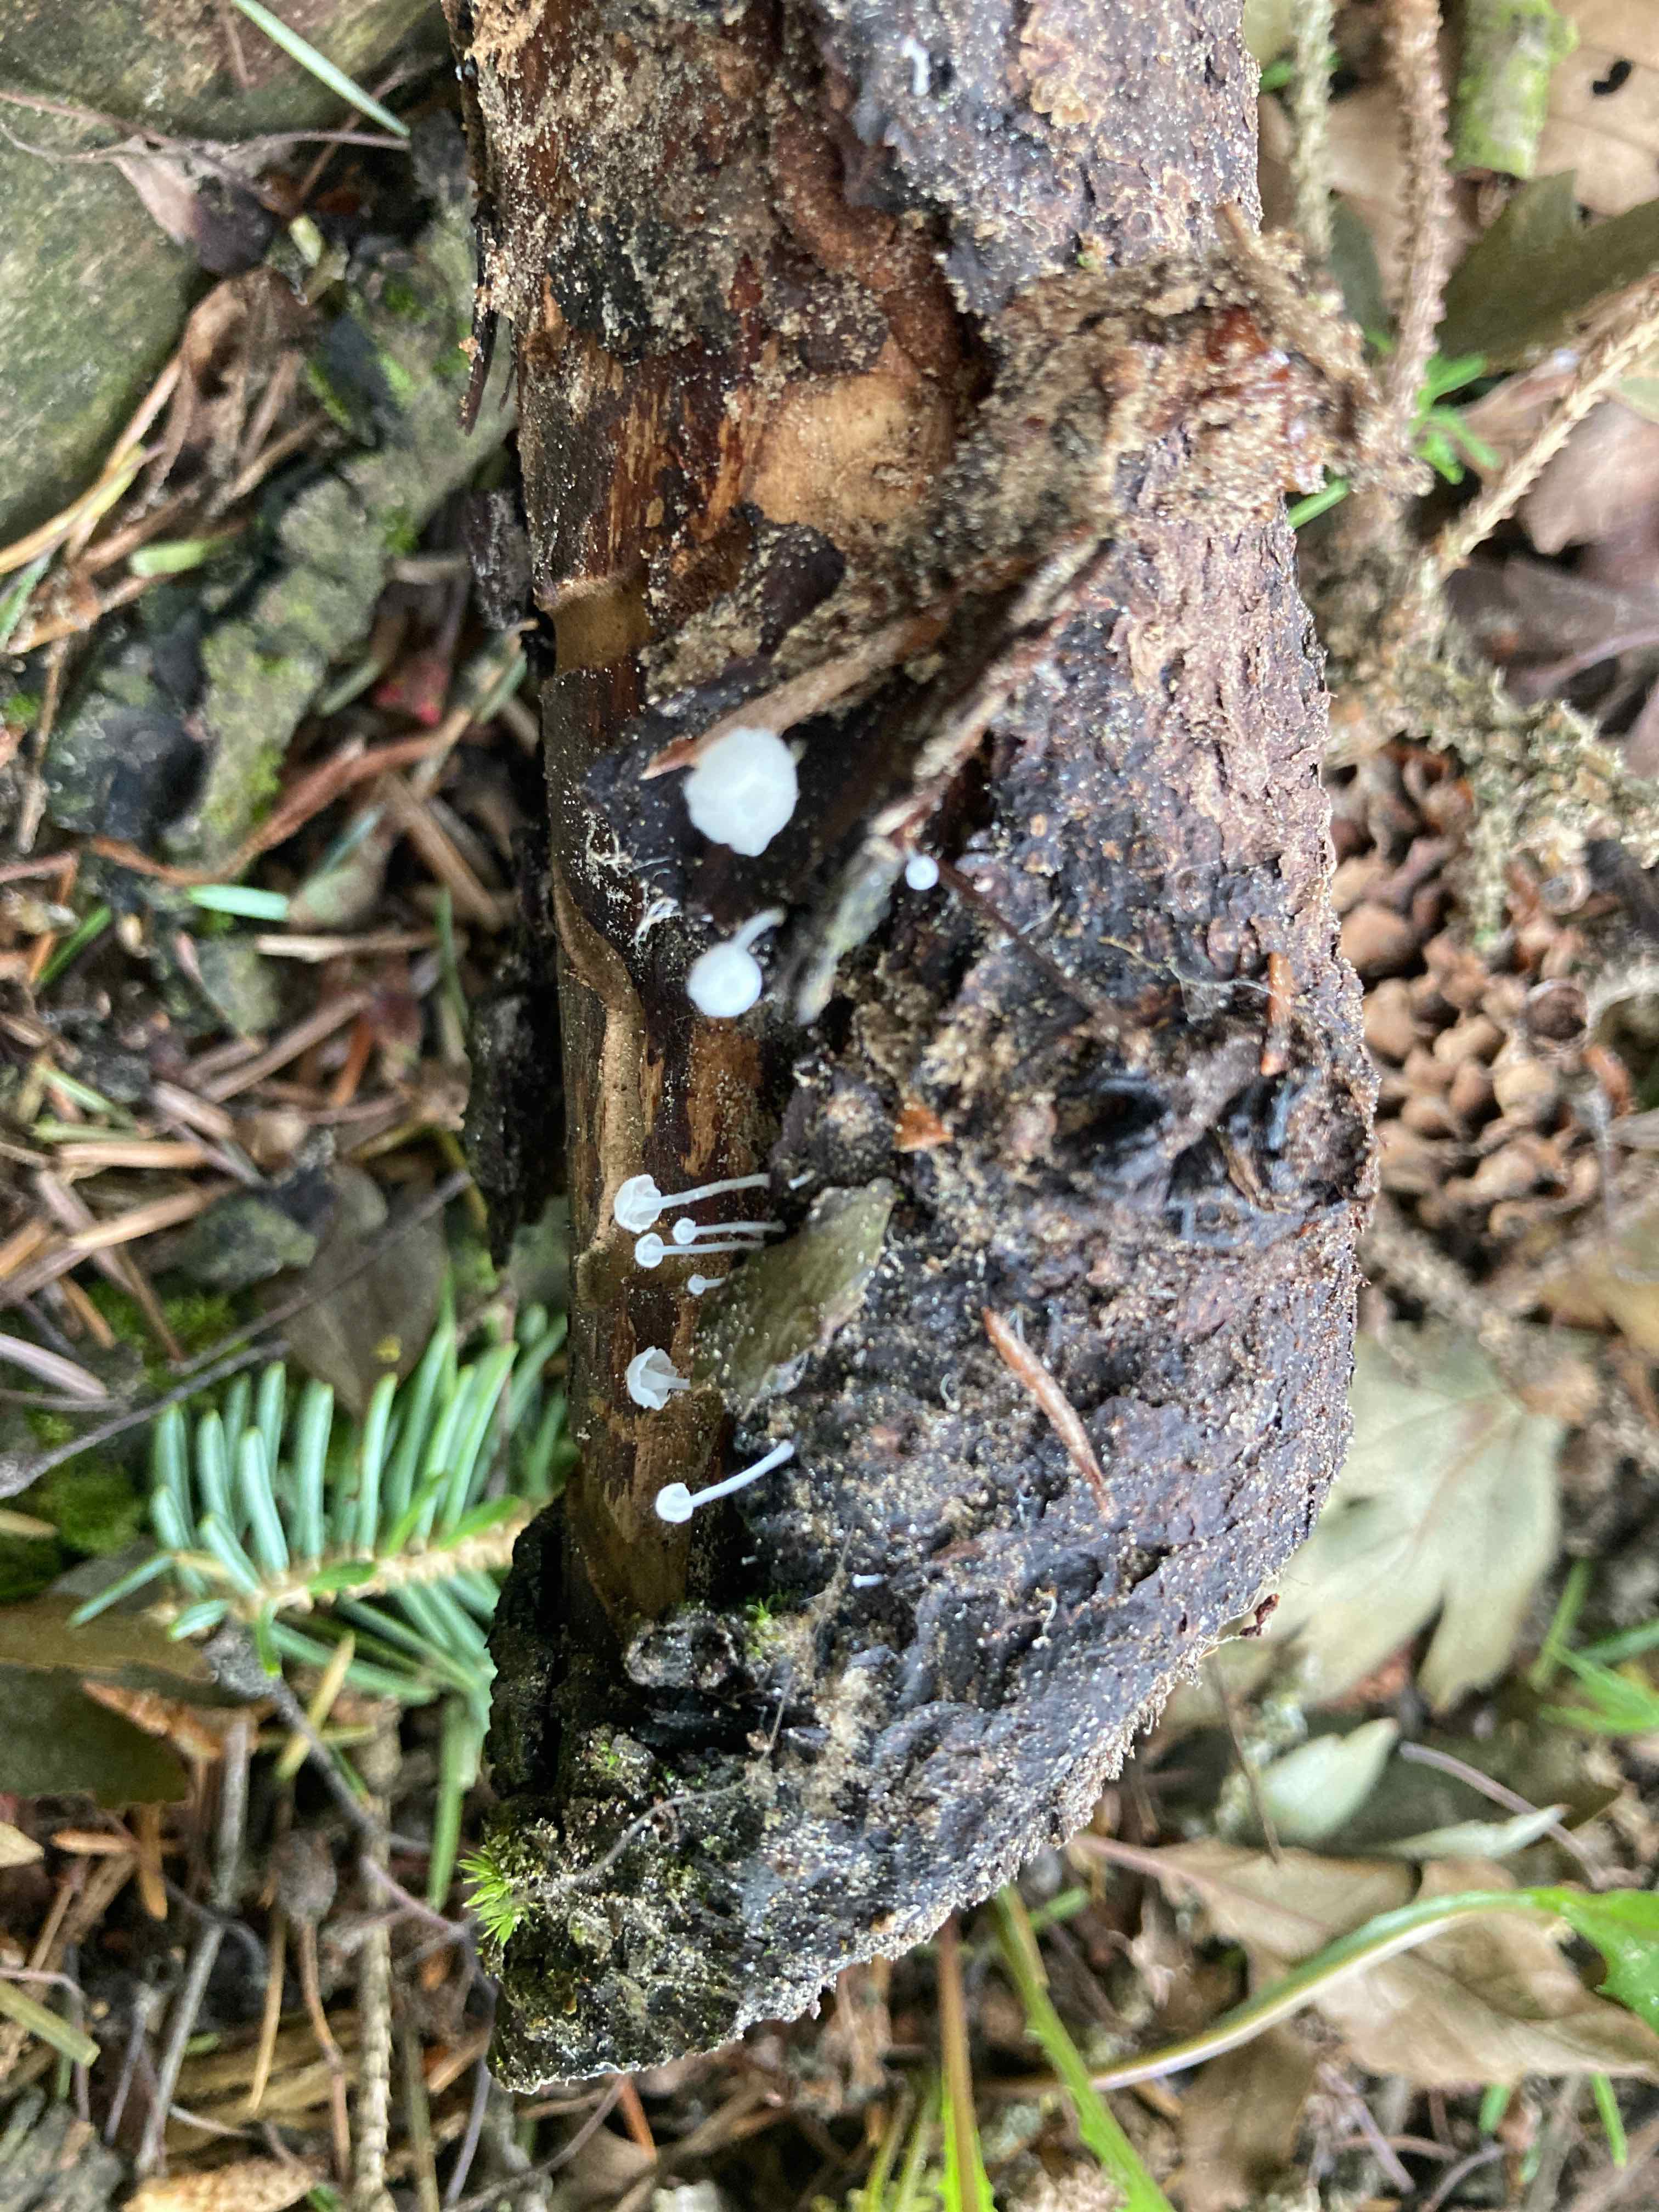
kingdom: Fungi
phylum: Basidiomycota
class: Agaricomycetes
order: Agaricales
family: Mycenaceae
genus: Hemimycena
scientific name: Hemimycena subtilis
